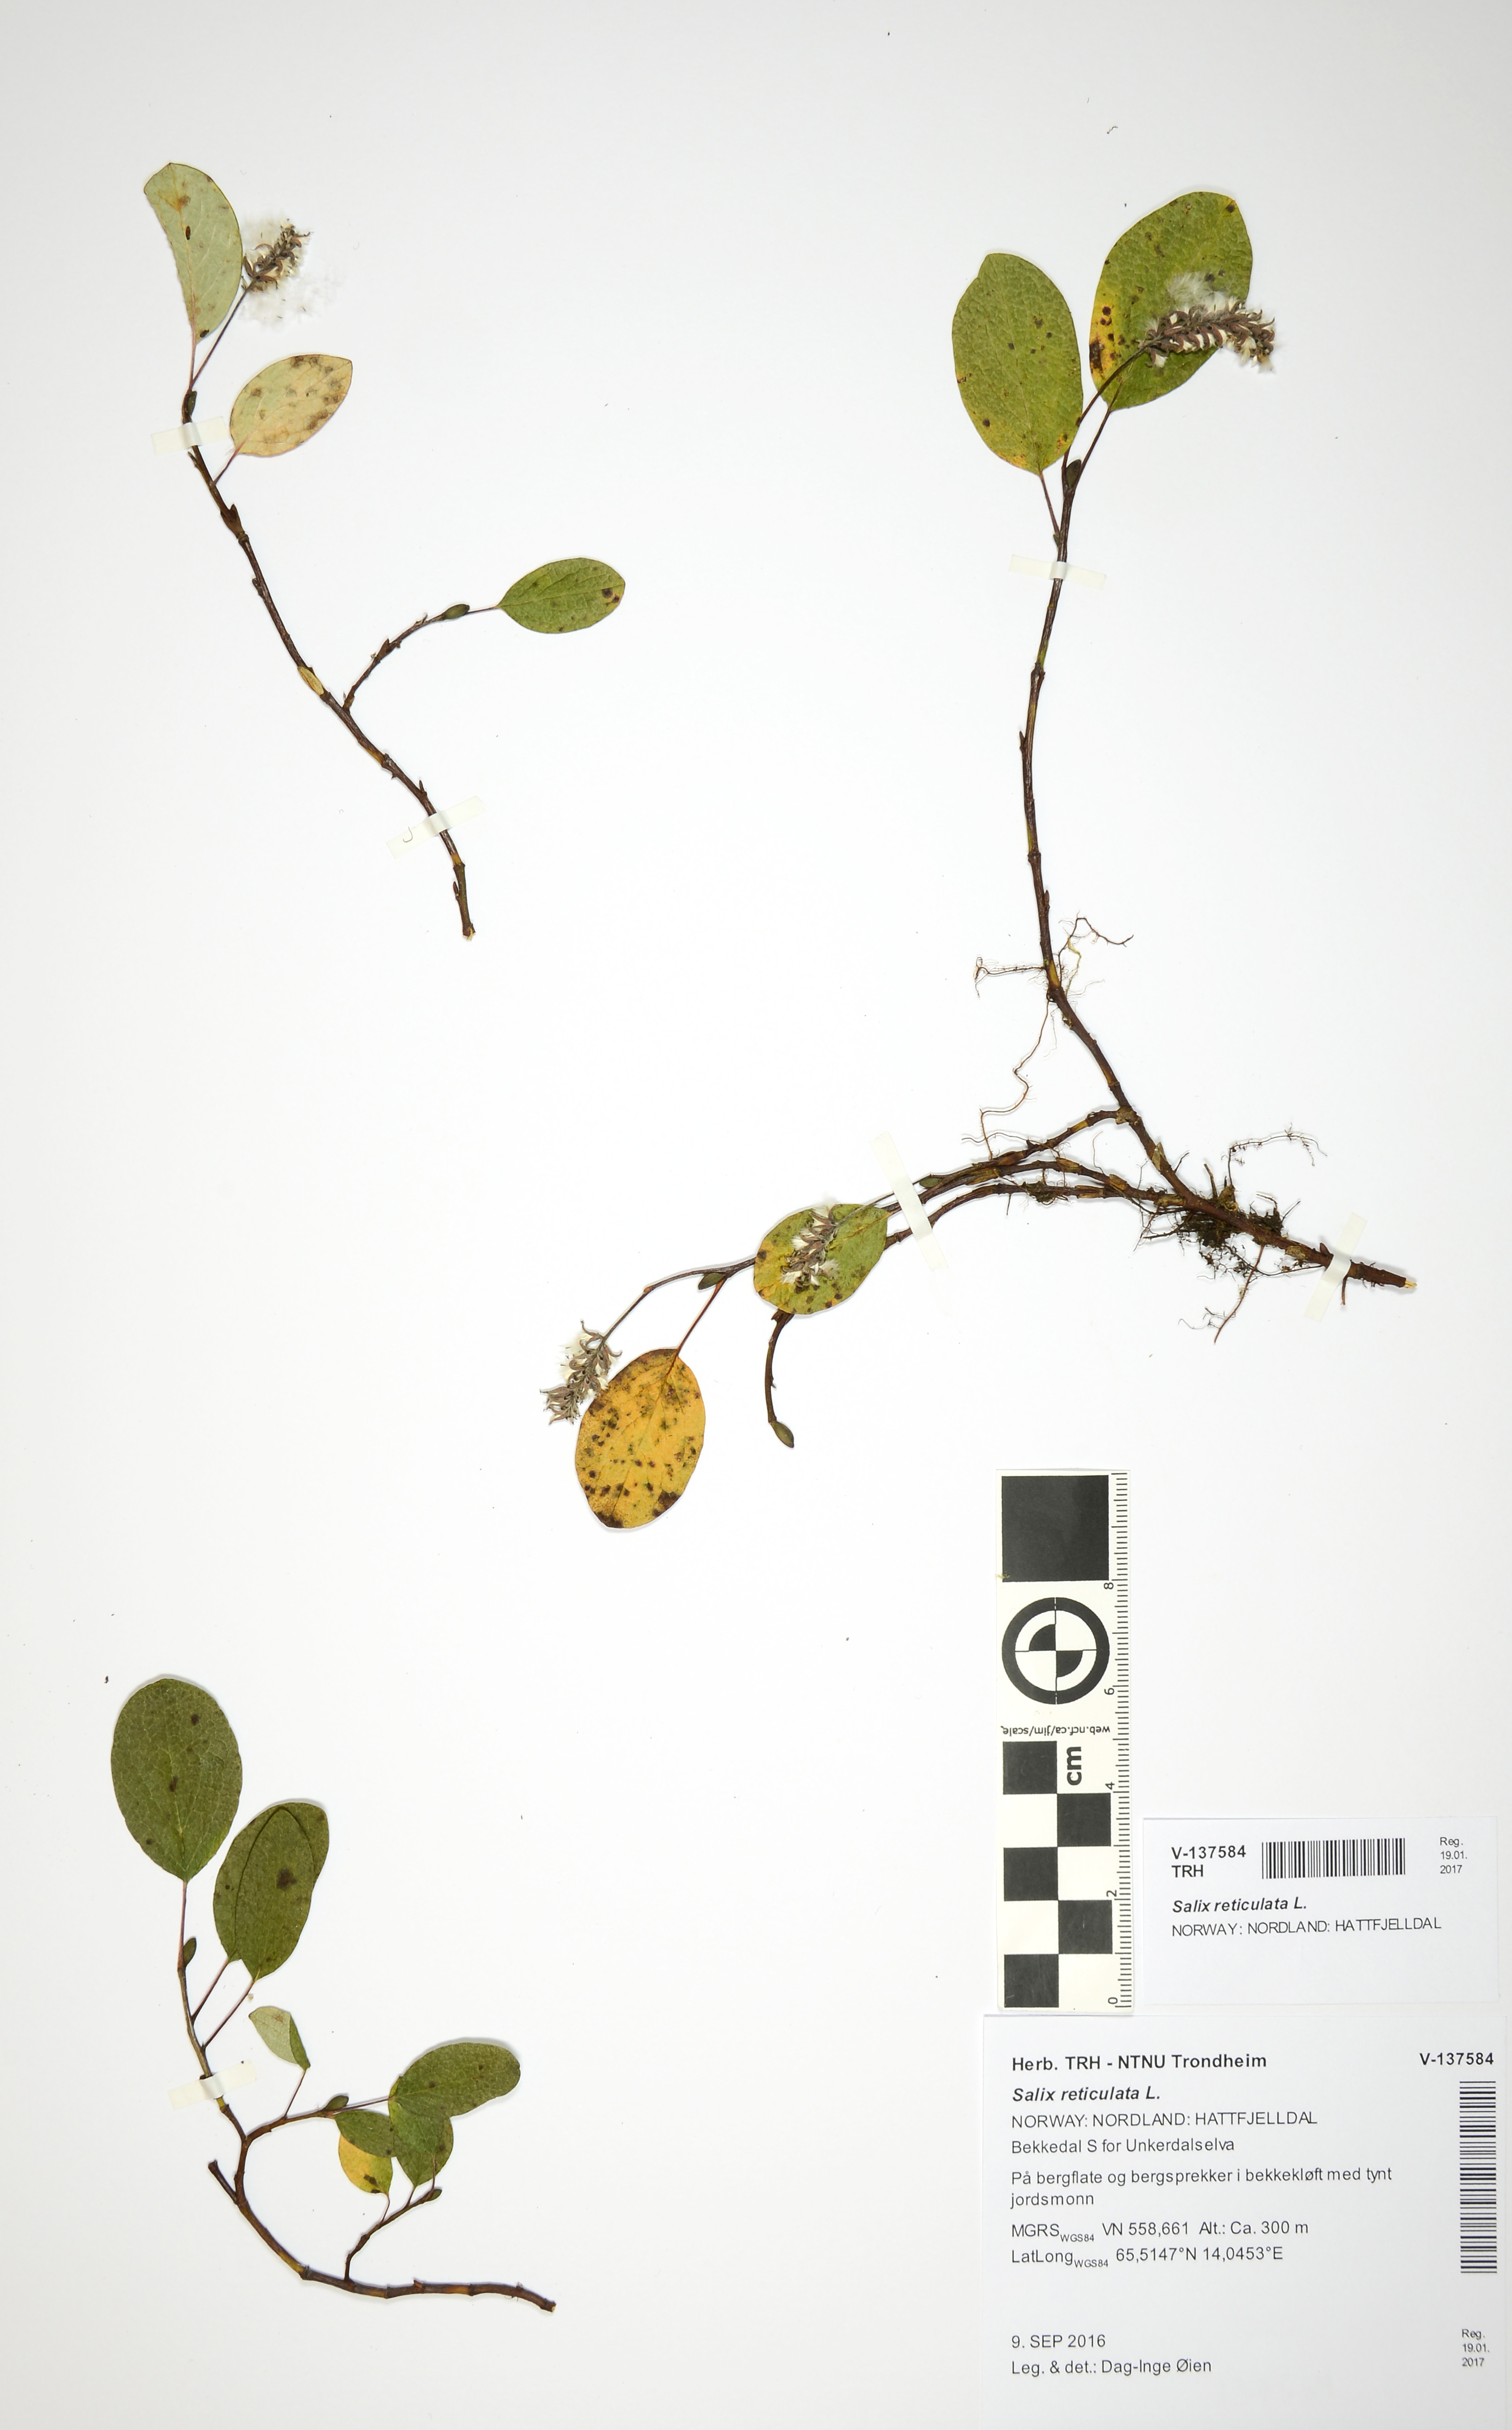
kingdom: Plantae
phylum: Tracheophyta
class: Magnoliopsida
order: Malpighiales
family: Salicaceae
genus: Salix
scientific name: Salix reticulata
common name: Net-leaved willow
